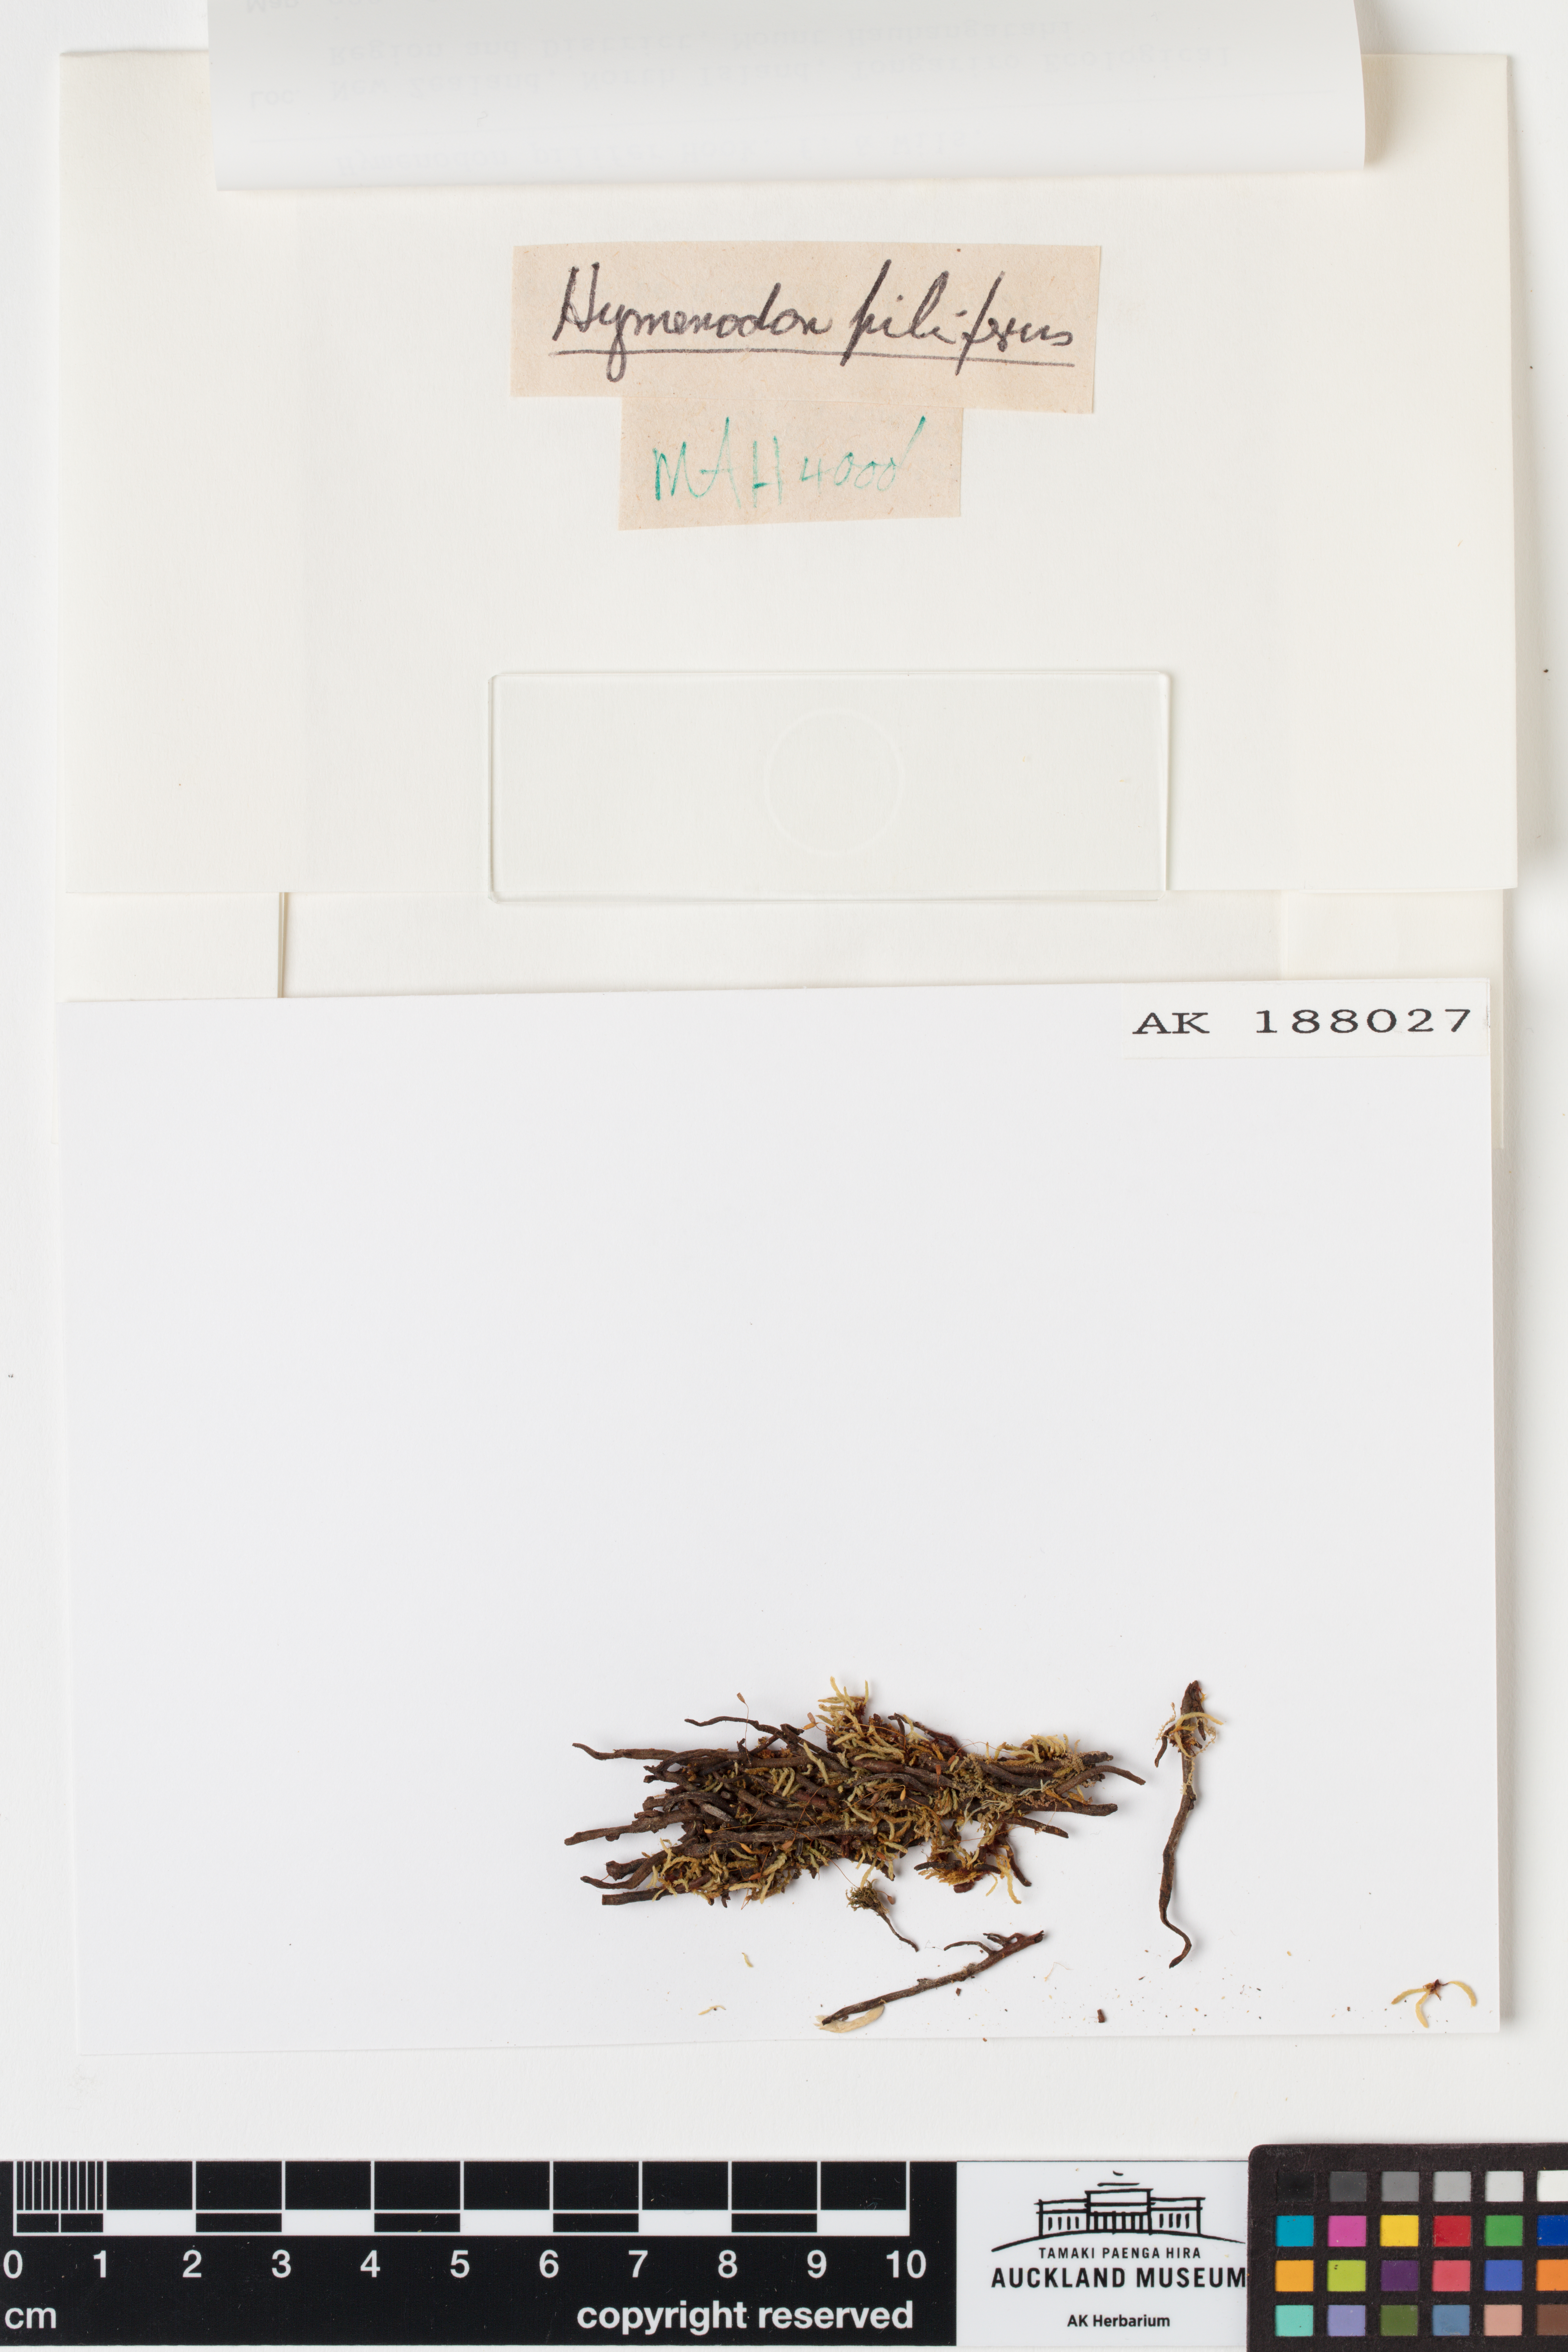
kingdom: Plantae
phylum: Bryophyta
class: Bryopsida
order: Orthodontiales
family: Orthodontiaceae
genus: Hymenodon
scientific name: Hymenodon pilifer
